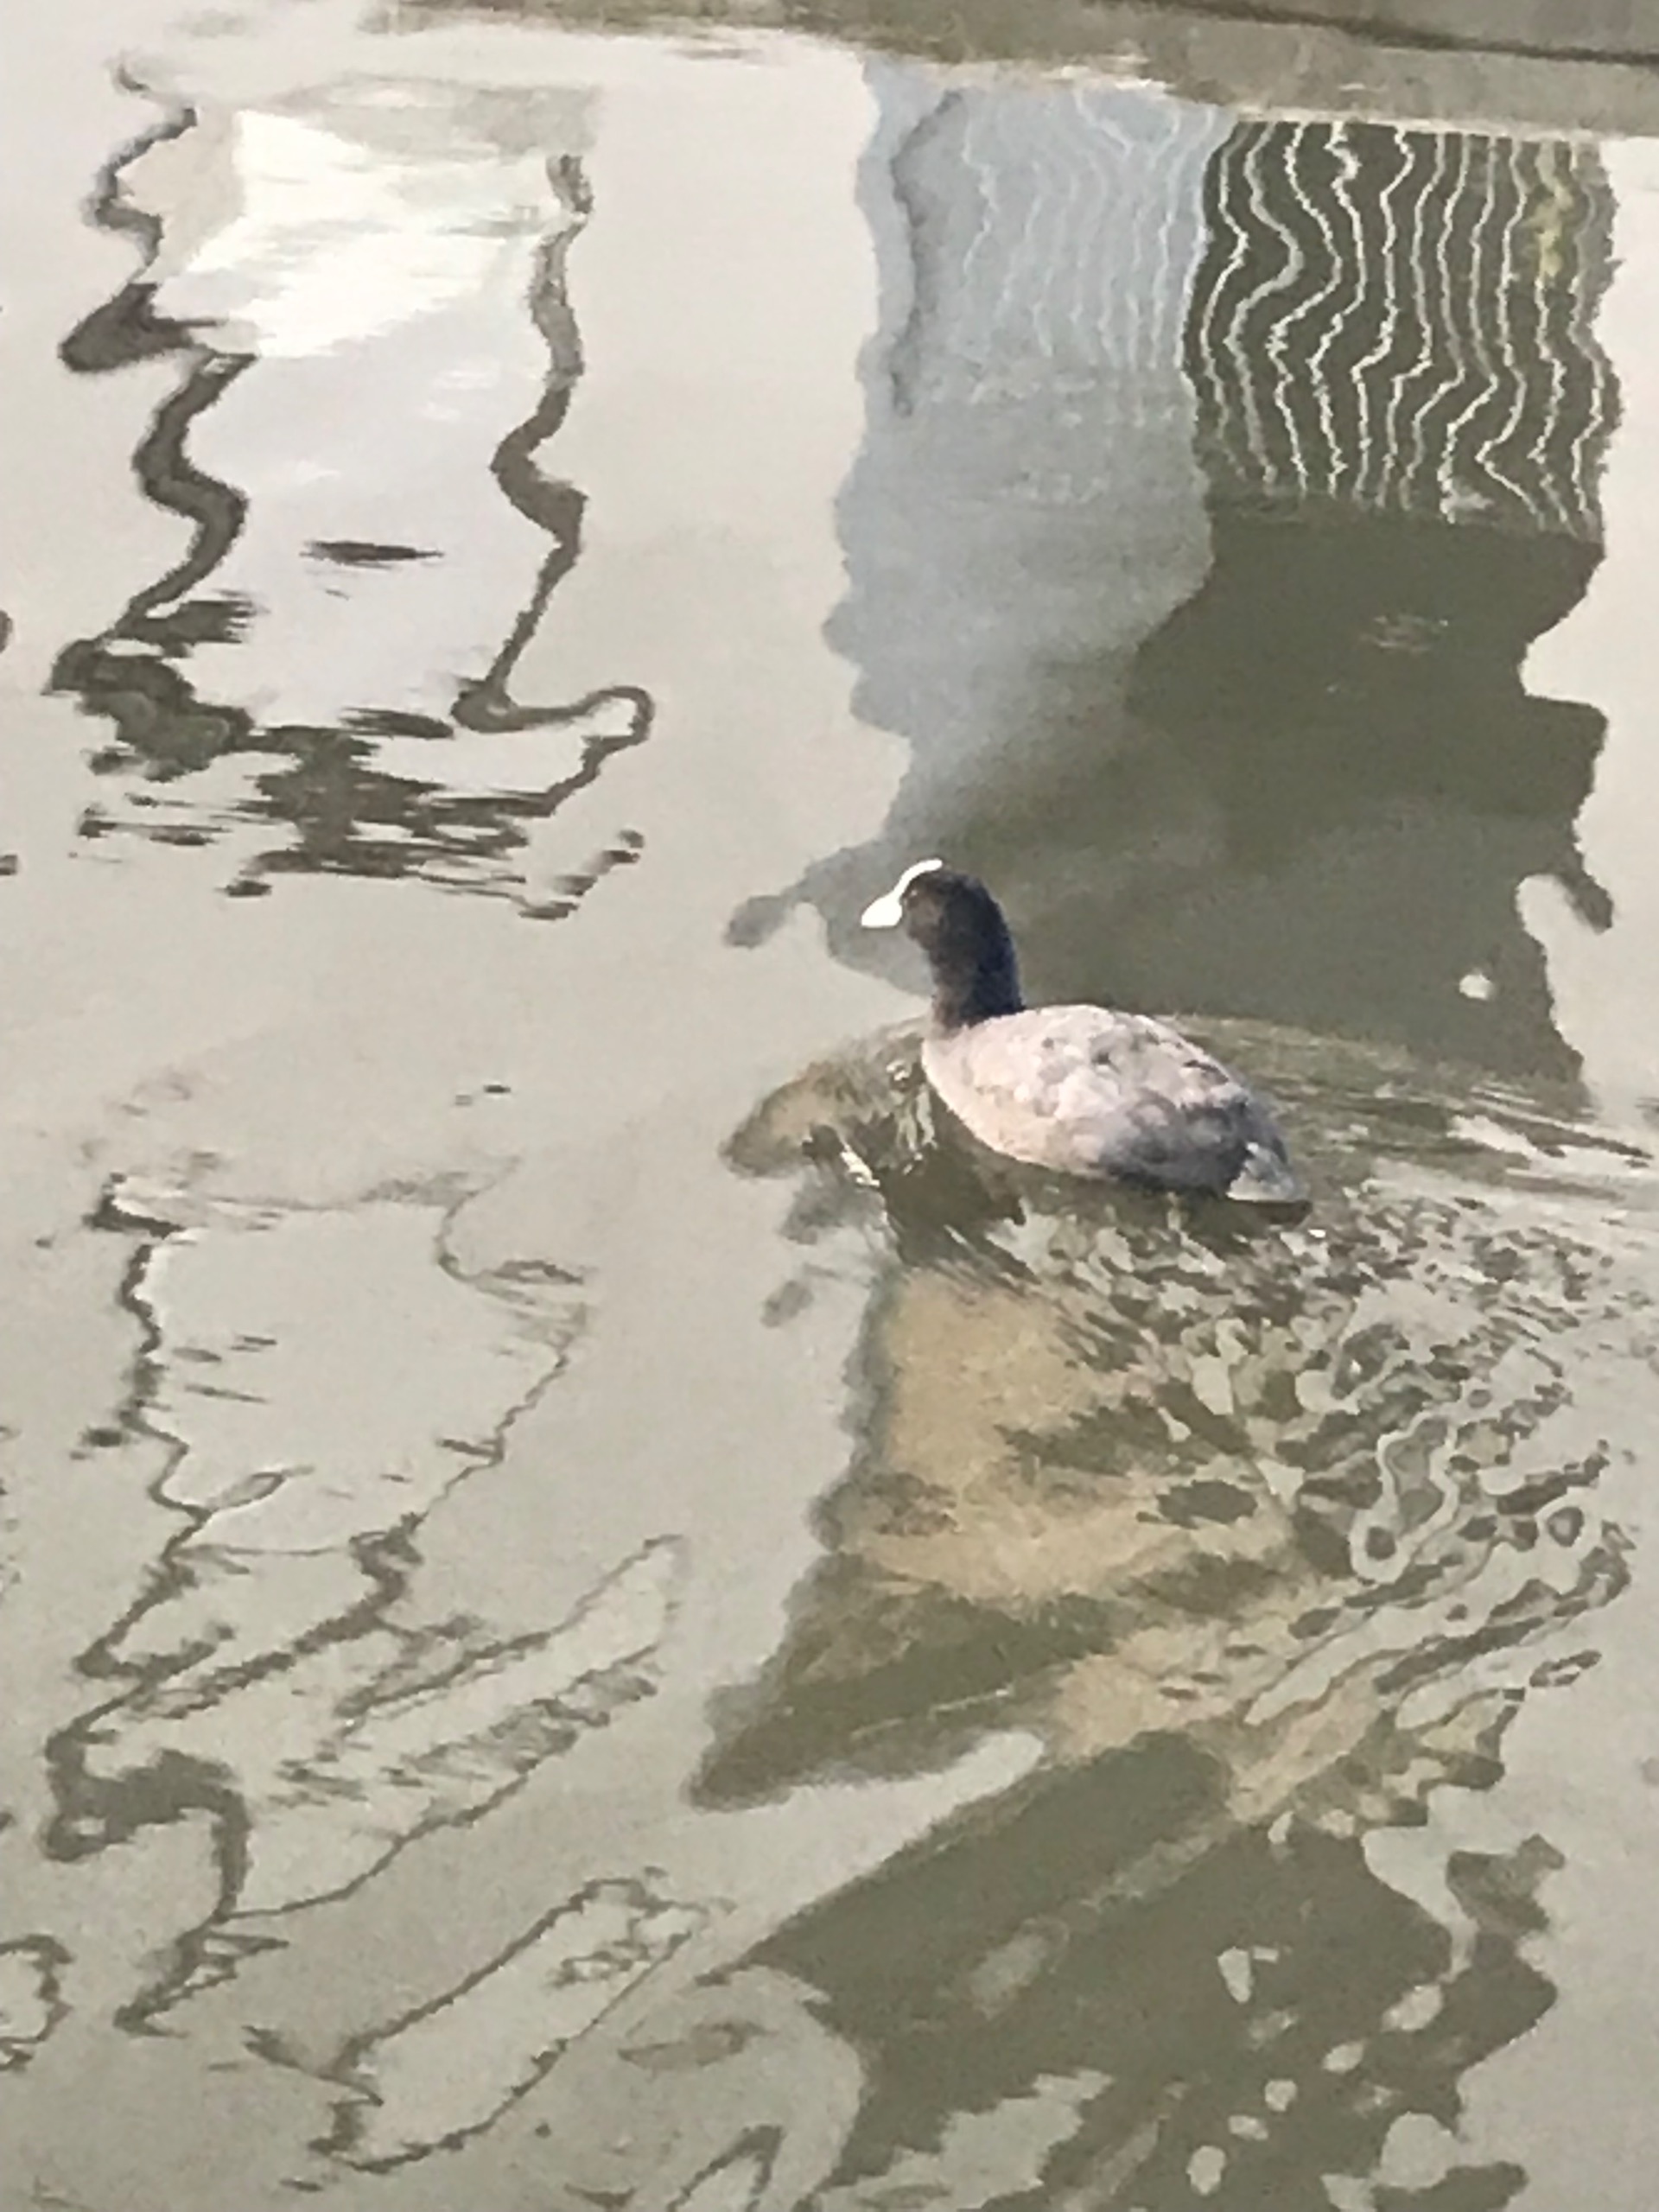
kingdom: Animalia
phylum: Chordata
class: Aves
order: Gruiformes
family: Rallidae
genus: Fulica
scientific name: Fulica atra
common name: Blishøne
